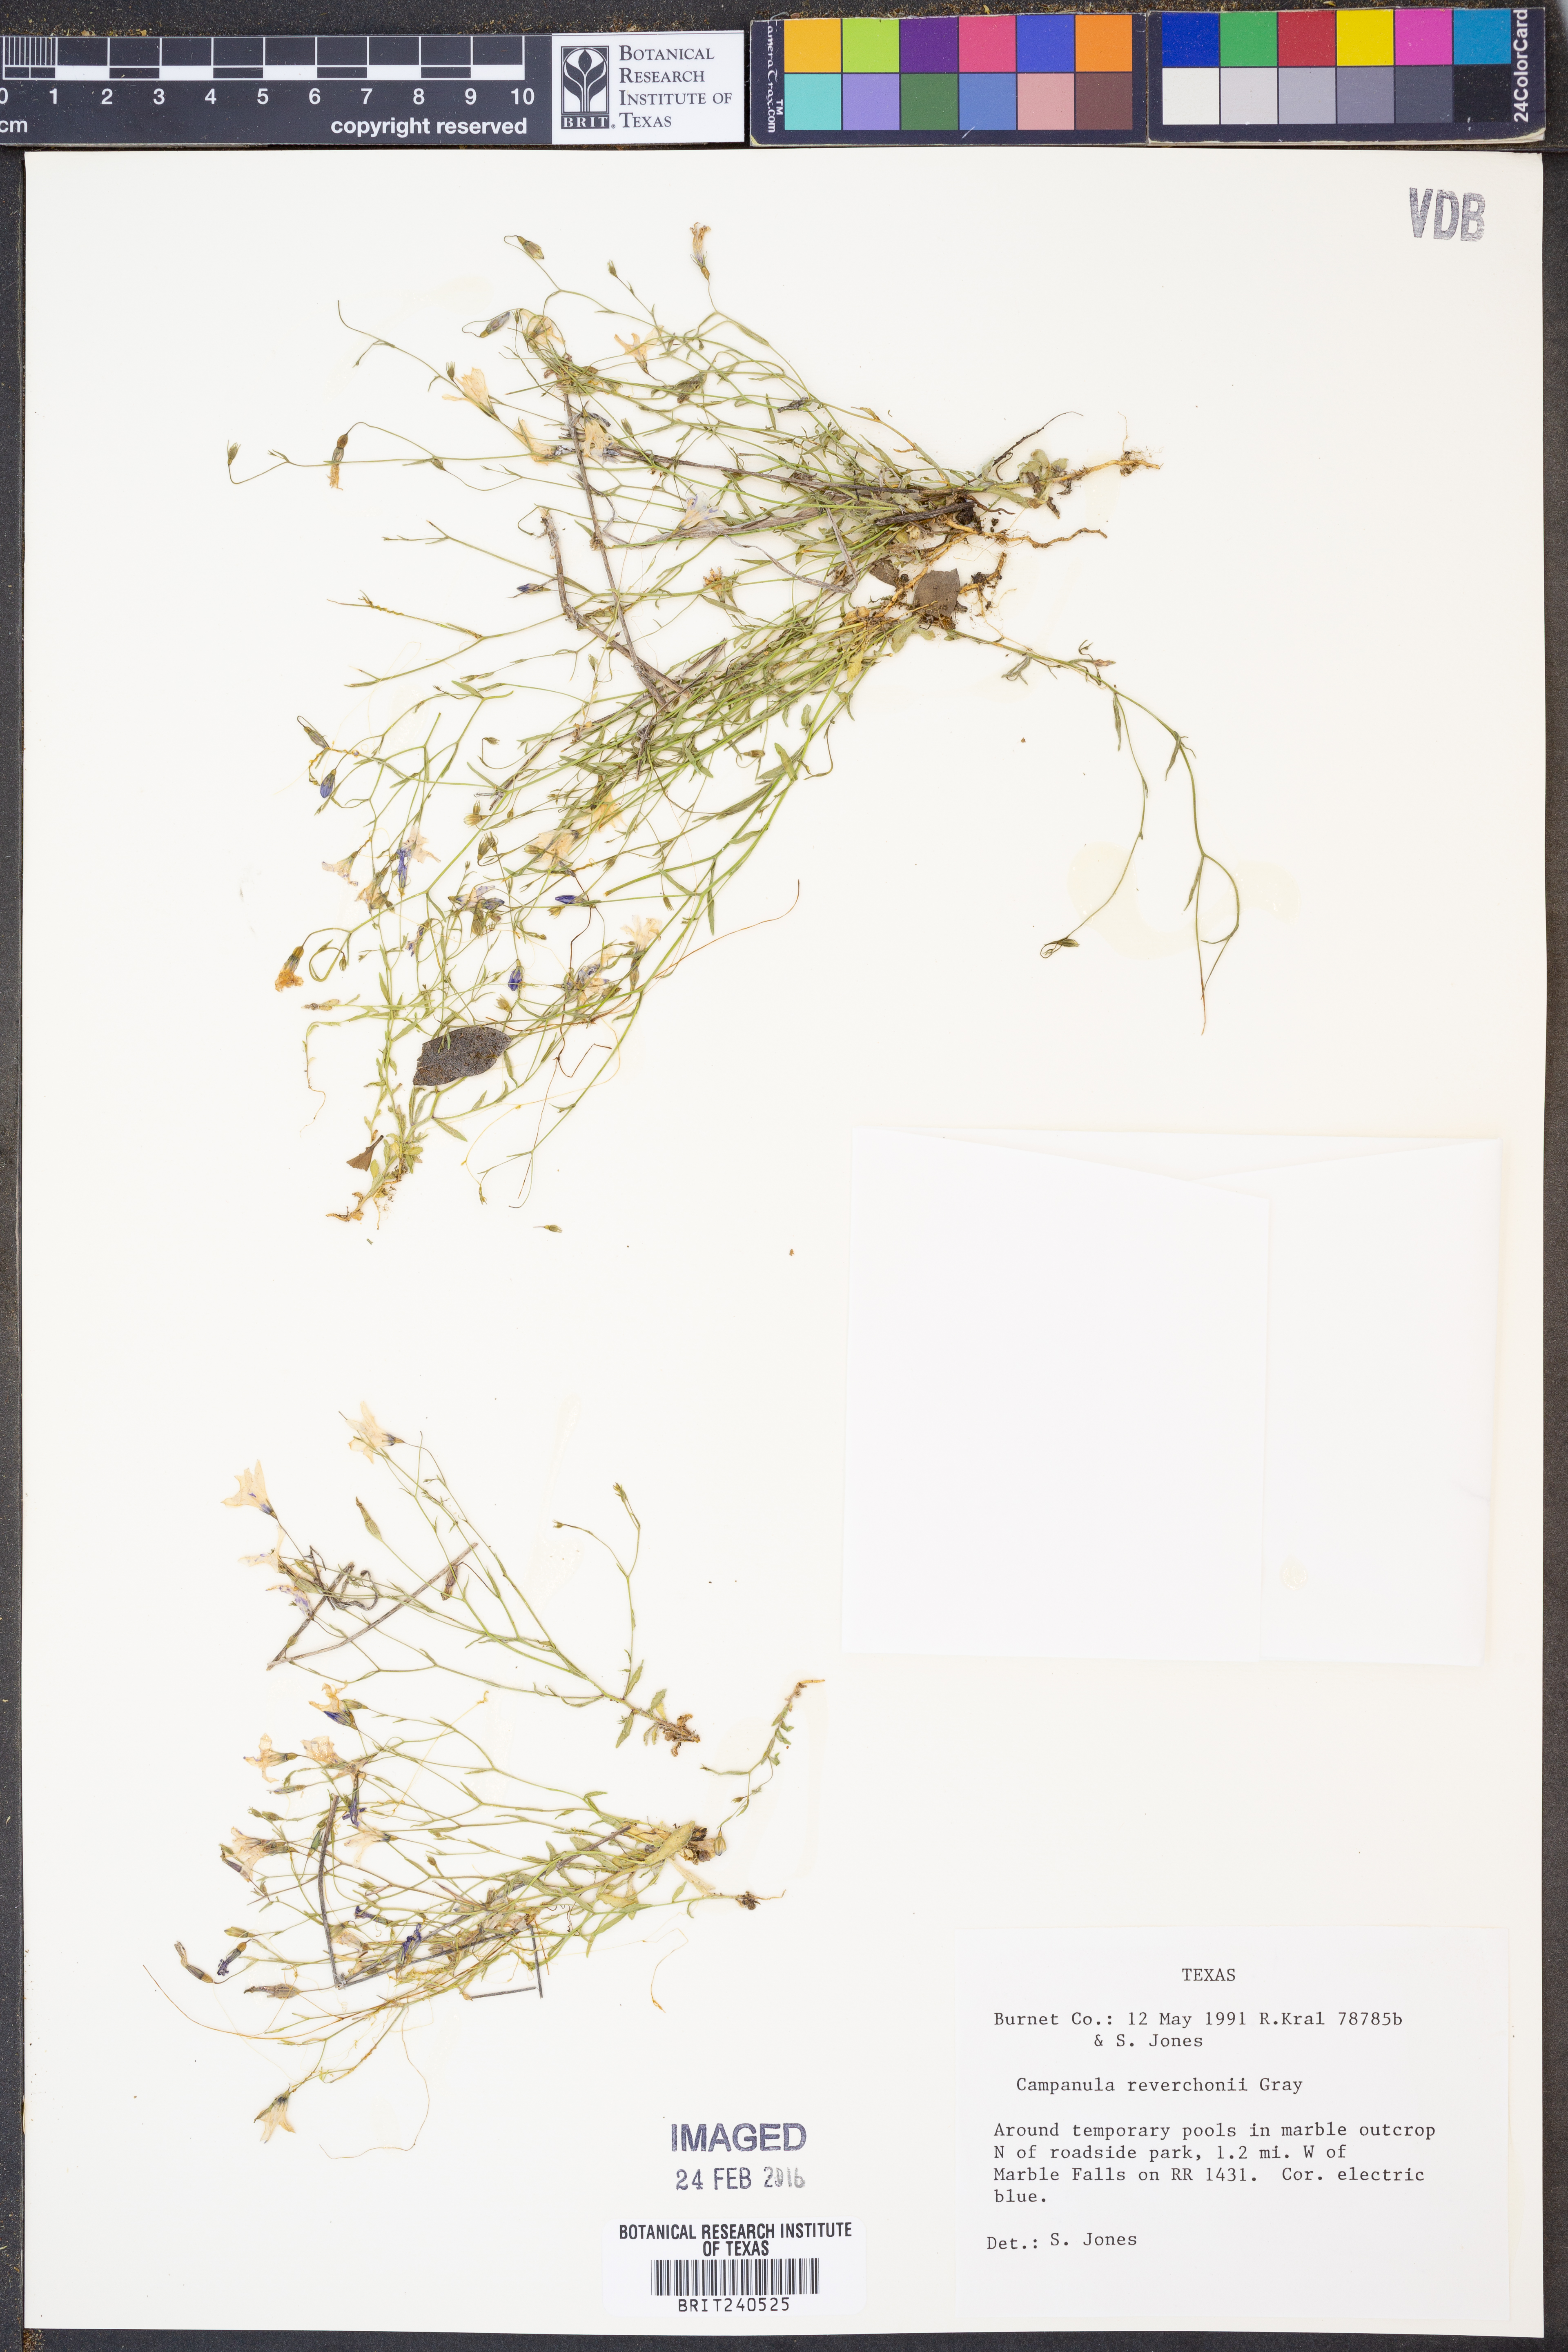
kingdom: Plantae
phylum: Tracheophyta
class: Magnoliopsida
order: Asterales
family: Campanulaceae
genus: Poolea
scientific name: Poolea reverchonii
